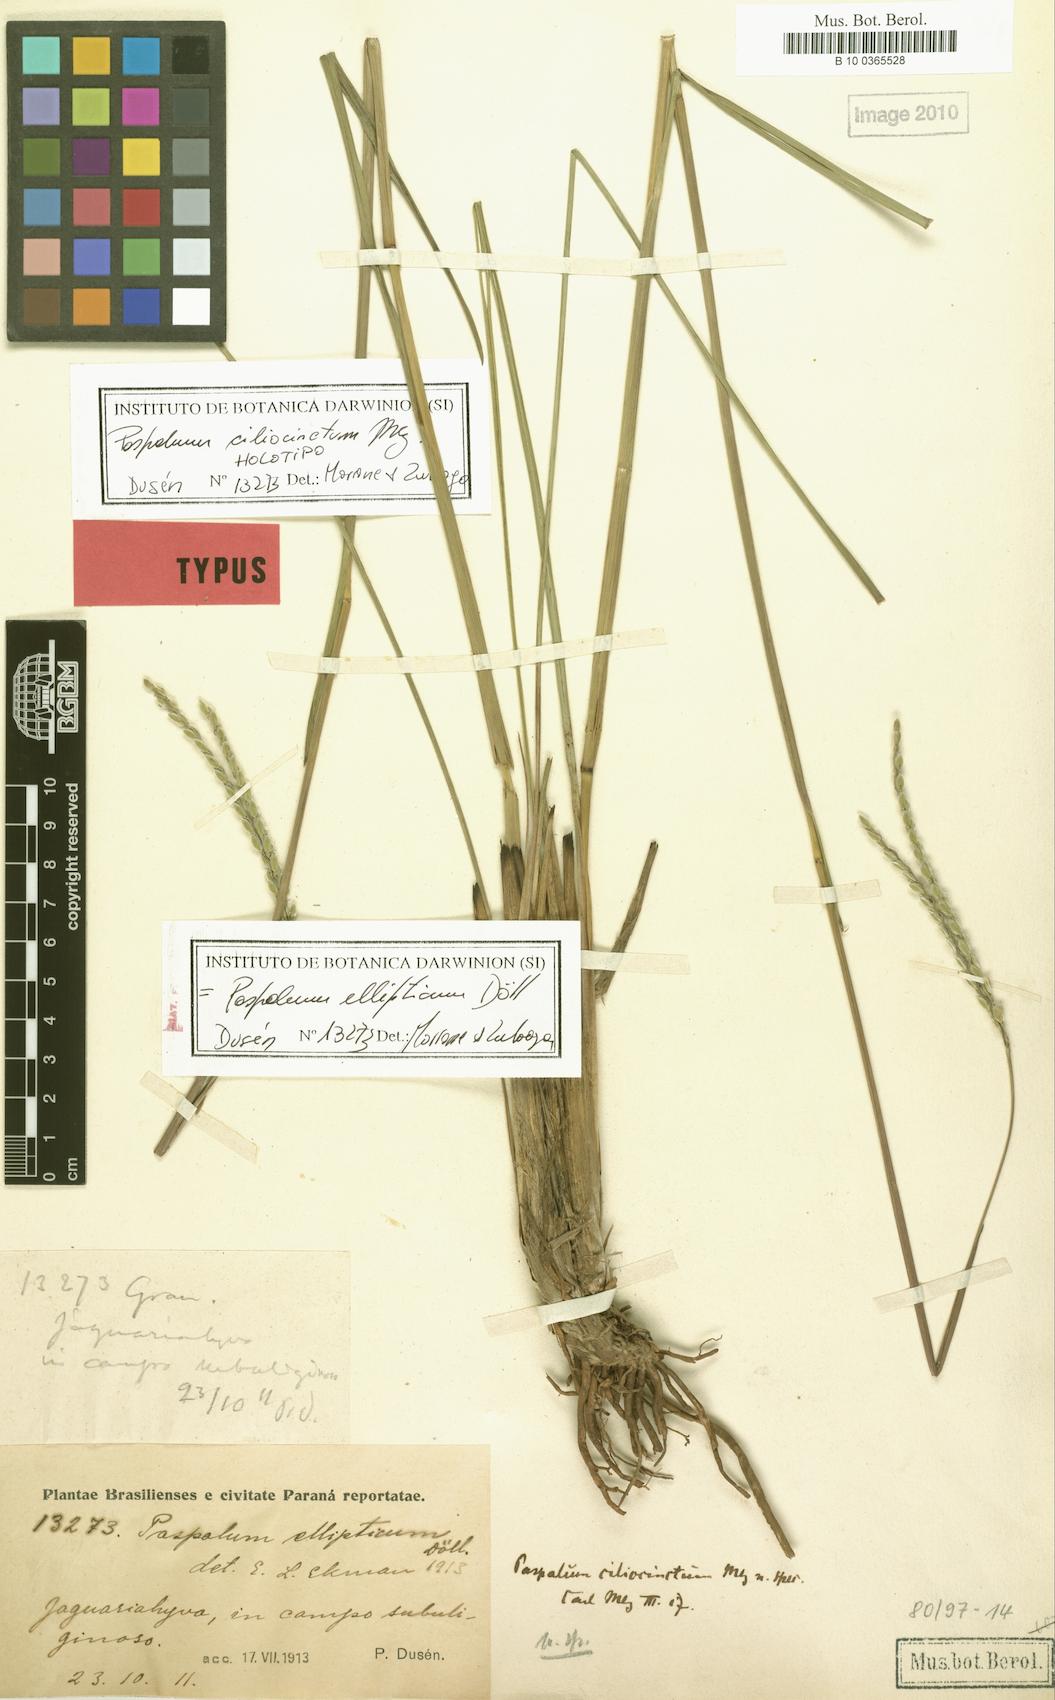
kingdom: Plantae
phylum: Tracheophyta
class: Liliopsida
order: Poales
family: Poaceae
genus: Paspalum
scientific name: Paspalum ellipticum
